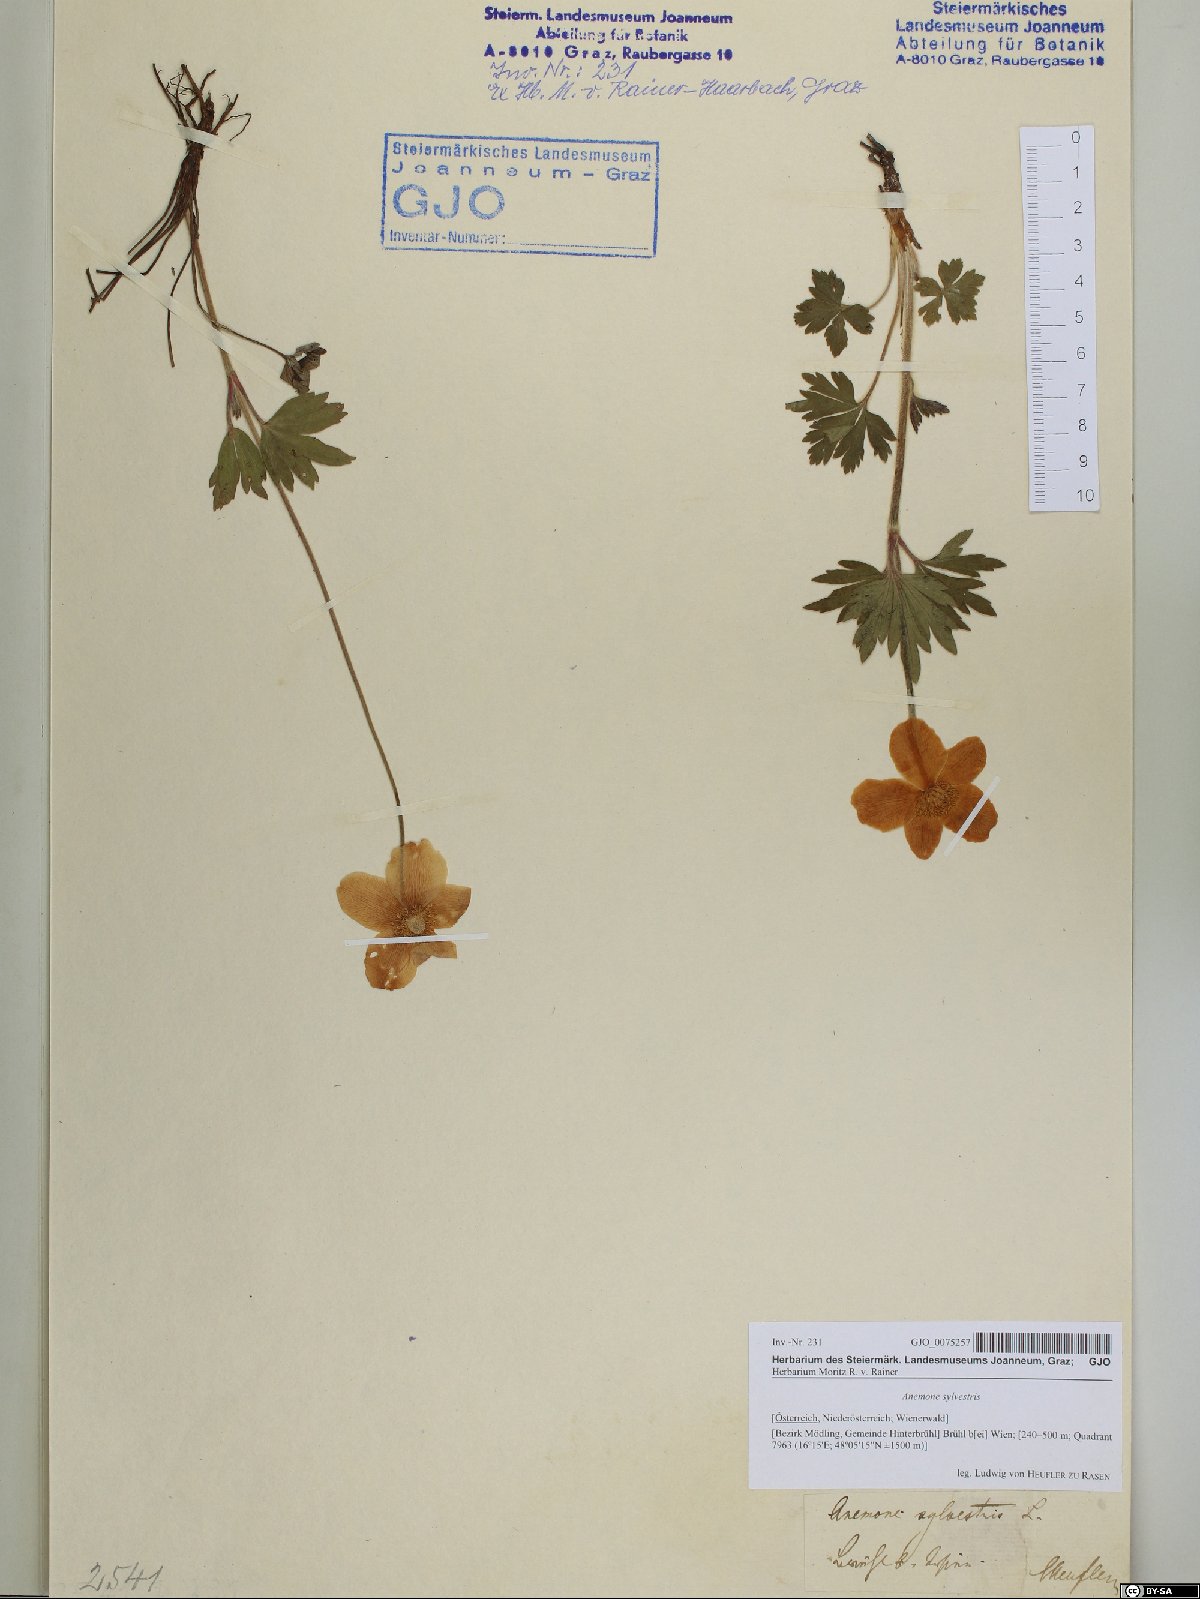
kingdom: Plantae
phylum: Tracheophyta
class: Magnoliopsida
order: Ranunculales
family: Ranunculaceae
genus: Anemone
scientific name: Anemone sylvestris
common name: Snowdrop anemone
